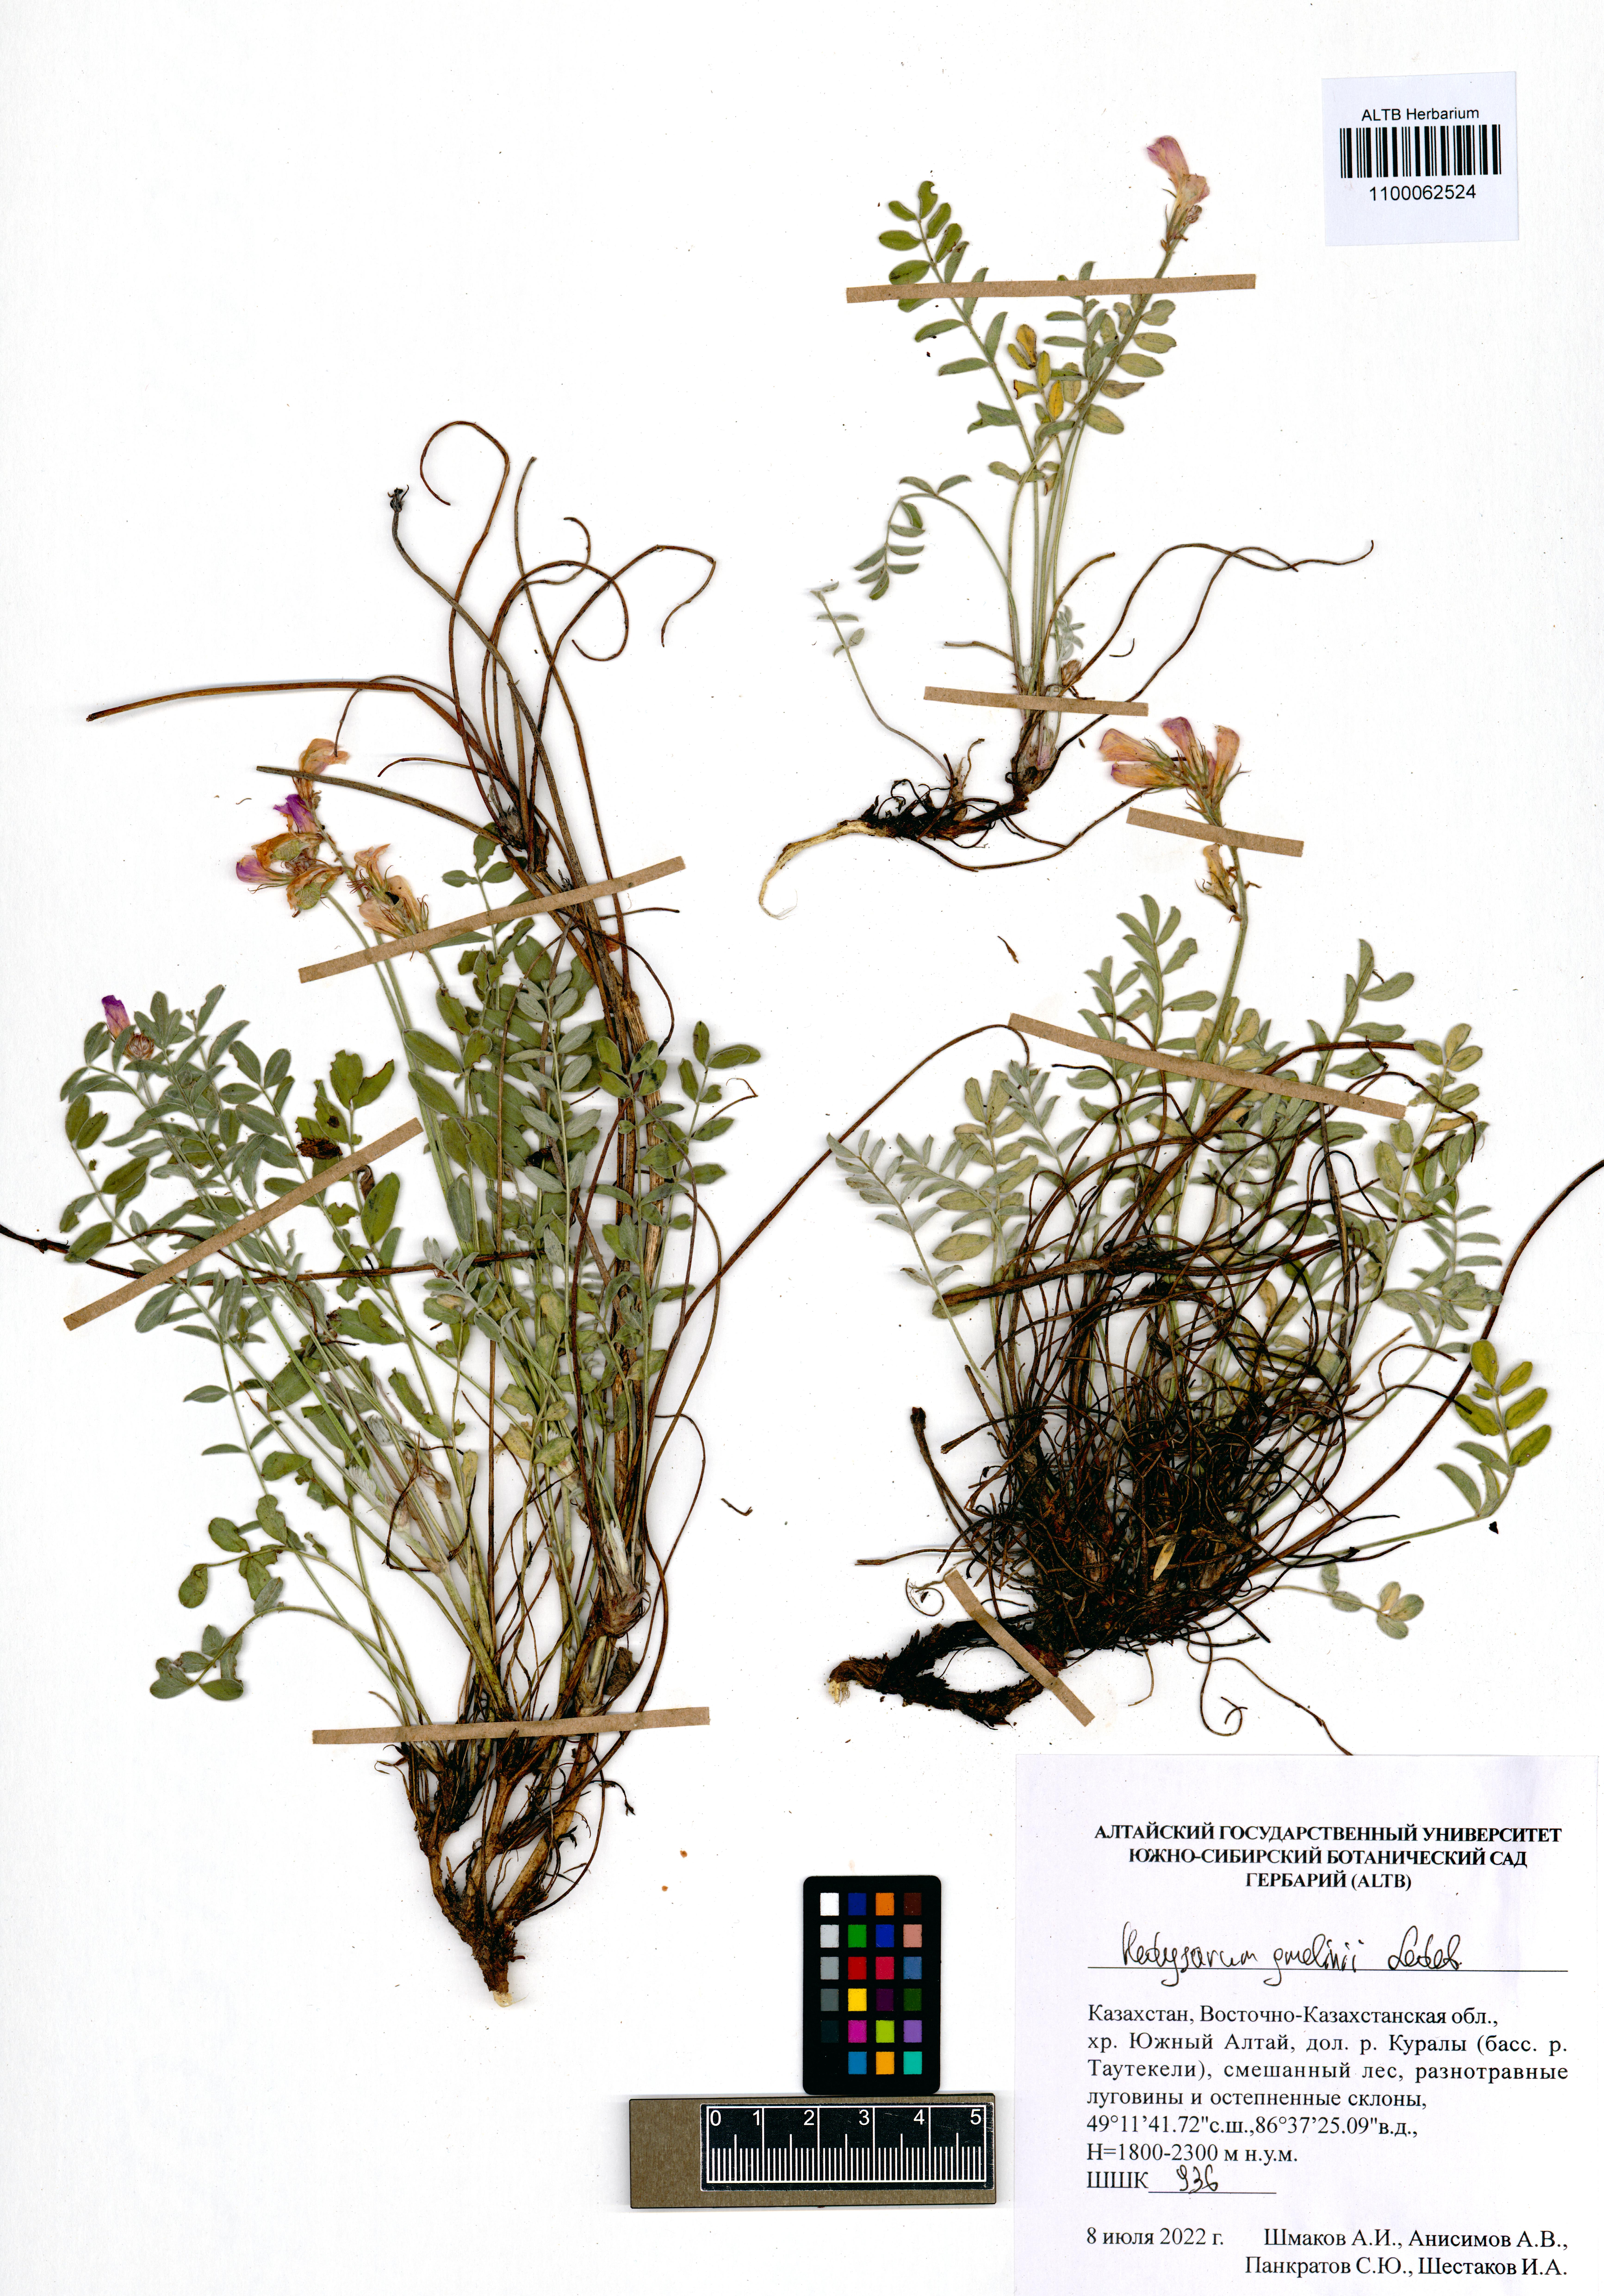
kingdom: Plantae
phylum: Tracheophyta
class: Magnoliopsida
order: Fabales
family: Fabaceae
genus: Hedysarum
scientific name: Hedysarum gmelinii
